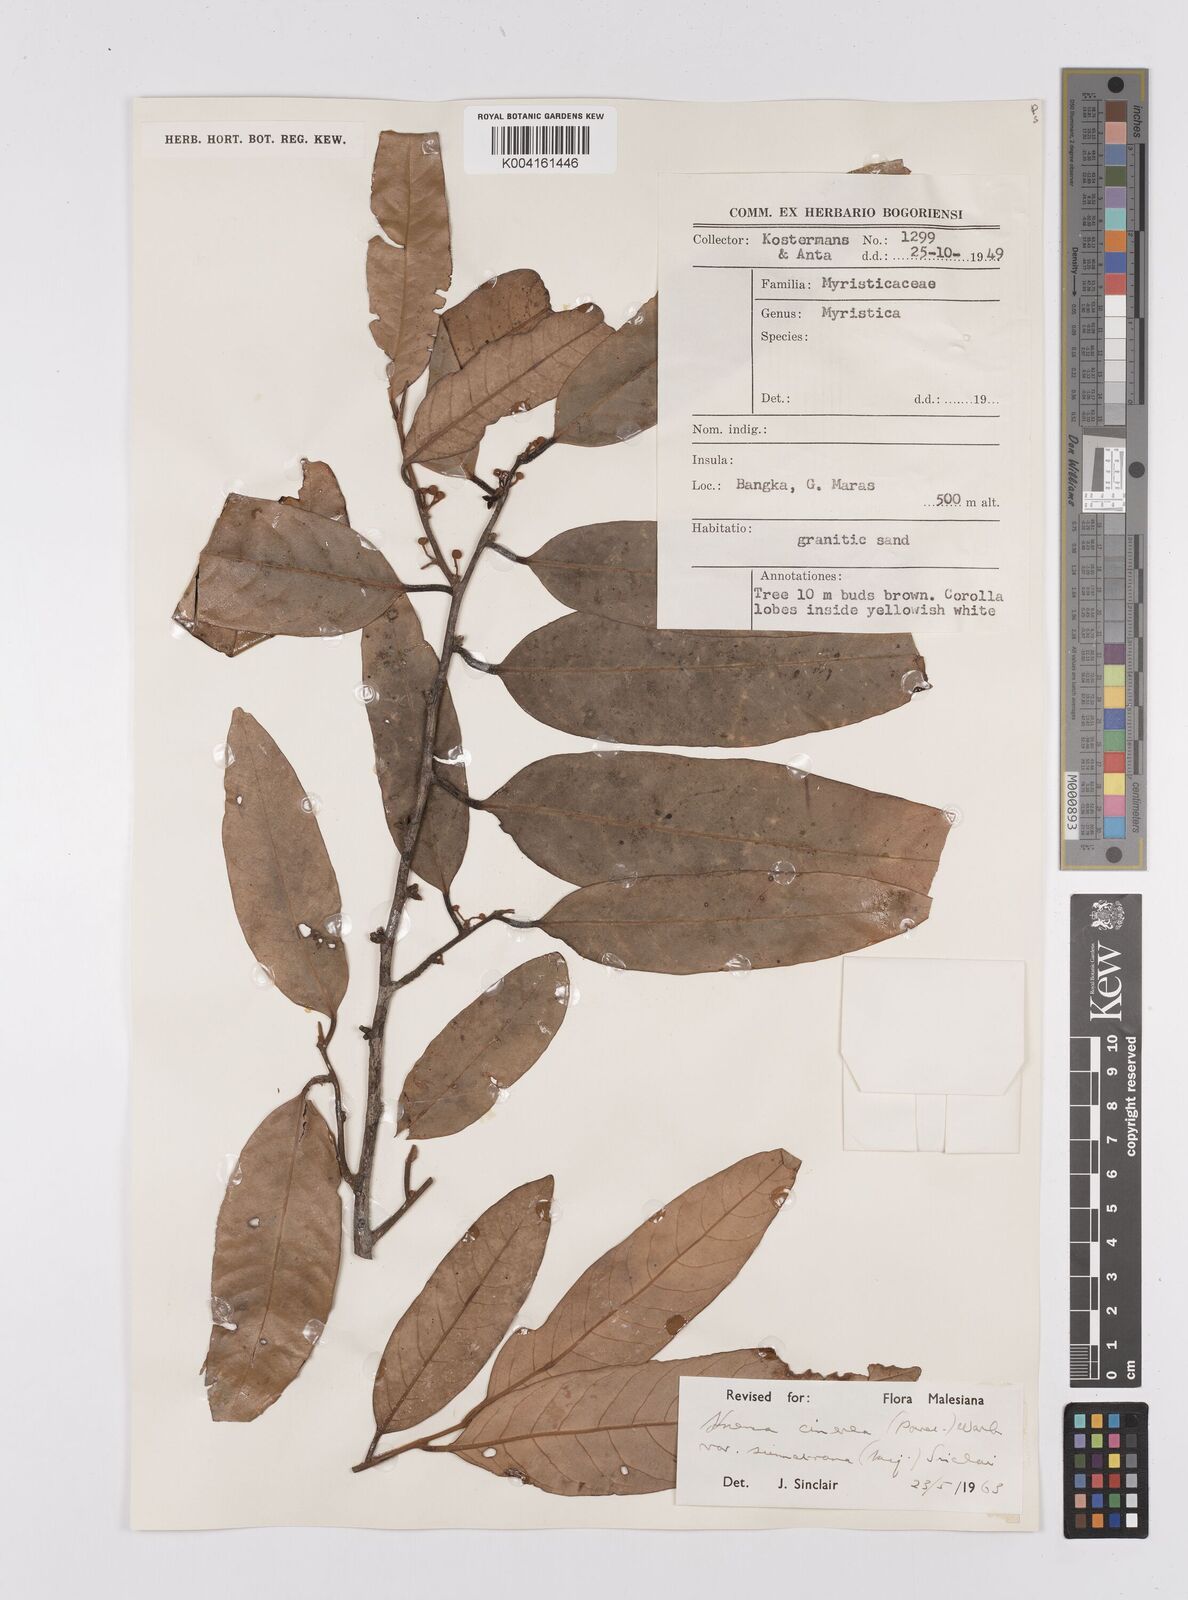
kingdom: Plantae
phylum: Tracheophyta
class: Magnoliopsida
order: Magnoliales
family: Myristicaceae
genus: Knema
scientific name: Knema
